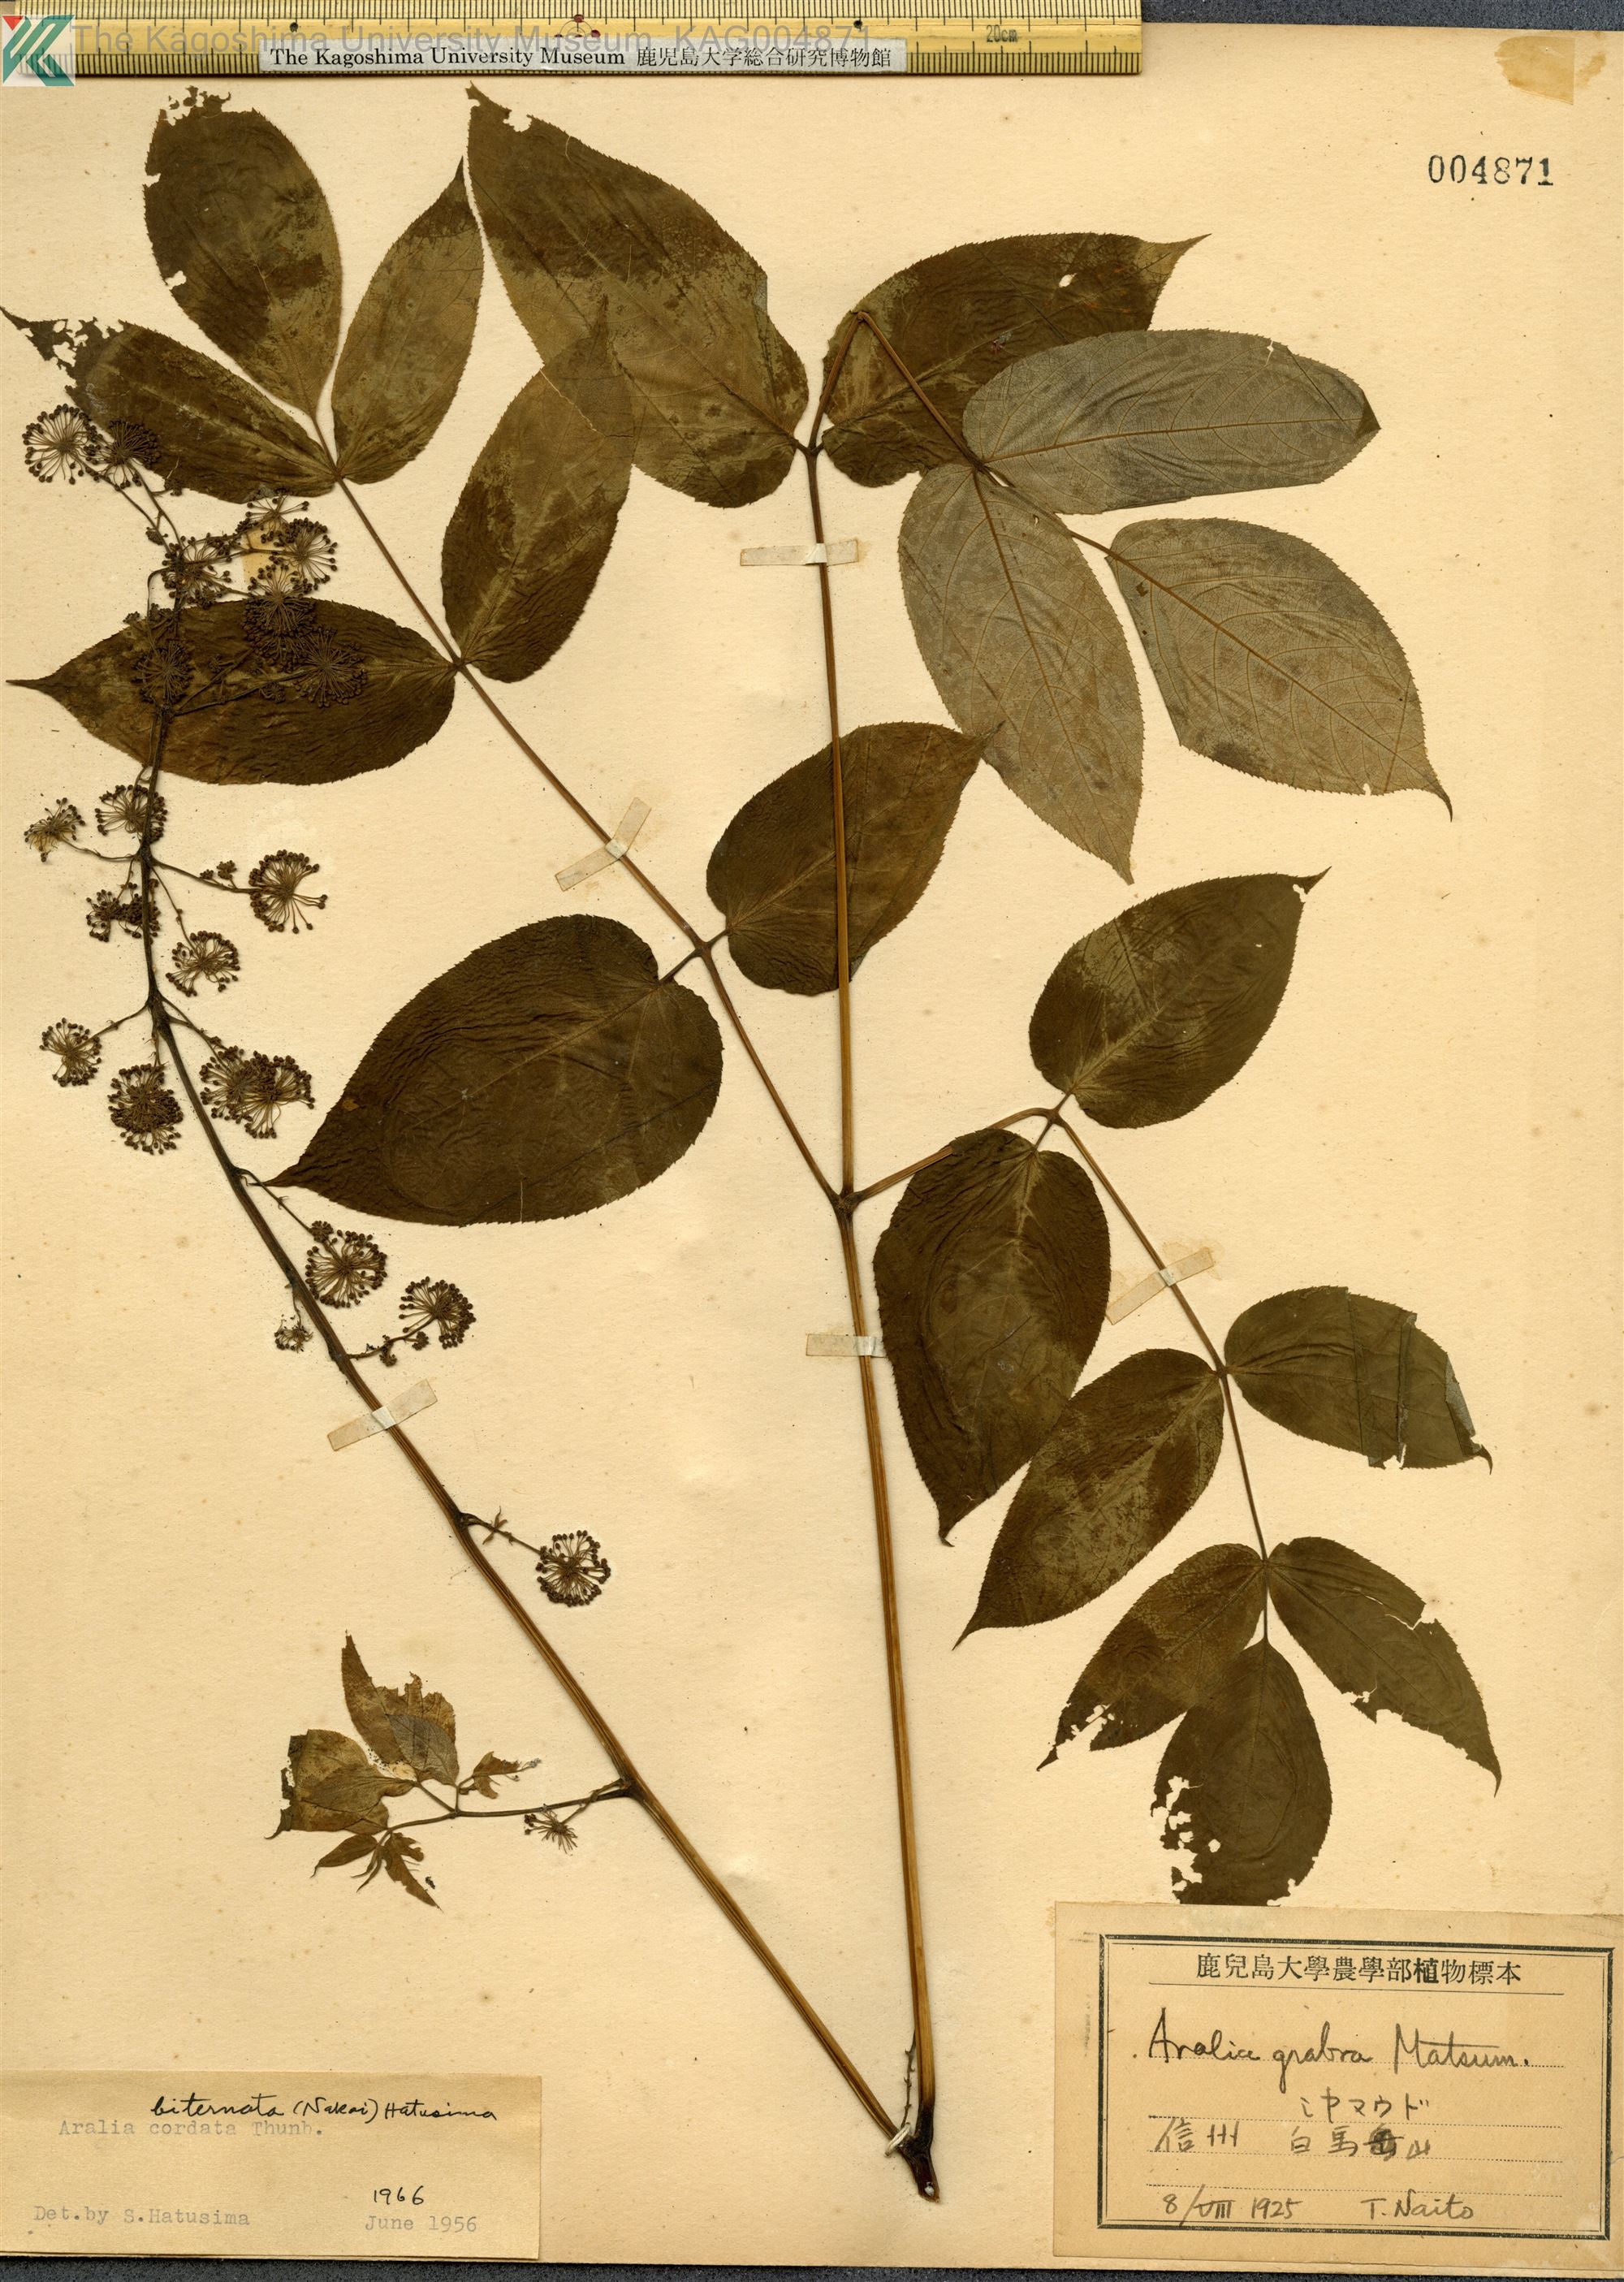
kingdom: Plantae
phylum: Tracheophyta
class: Magnoliopsida
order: Apiales
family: Araliaceae
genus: Aralia
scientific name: Aralia
